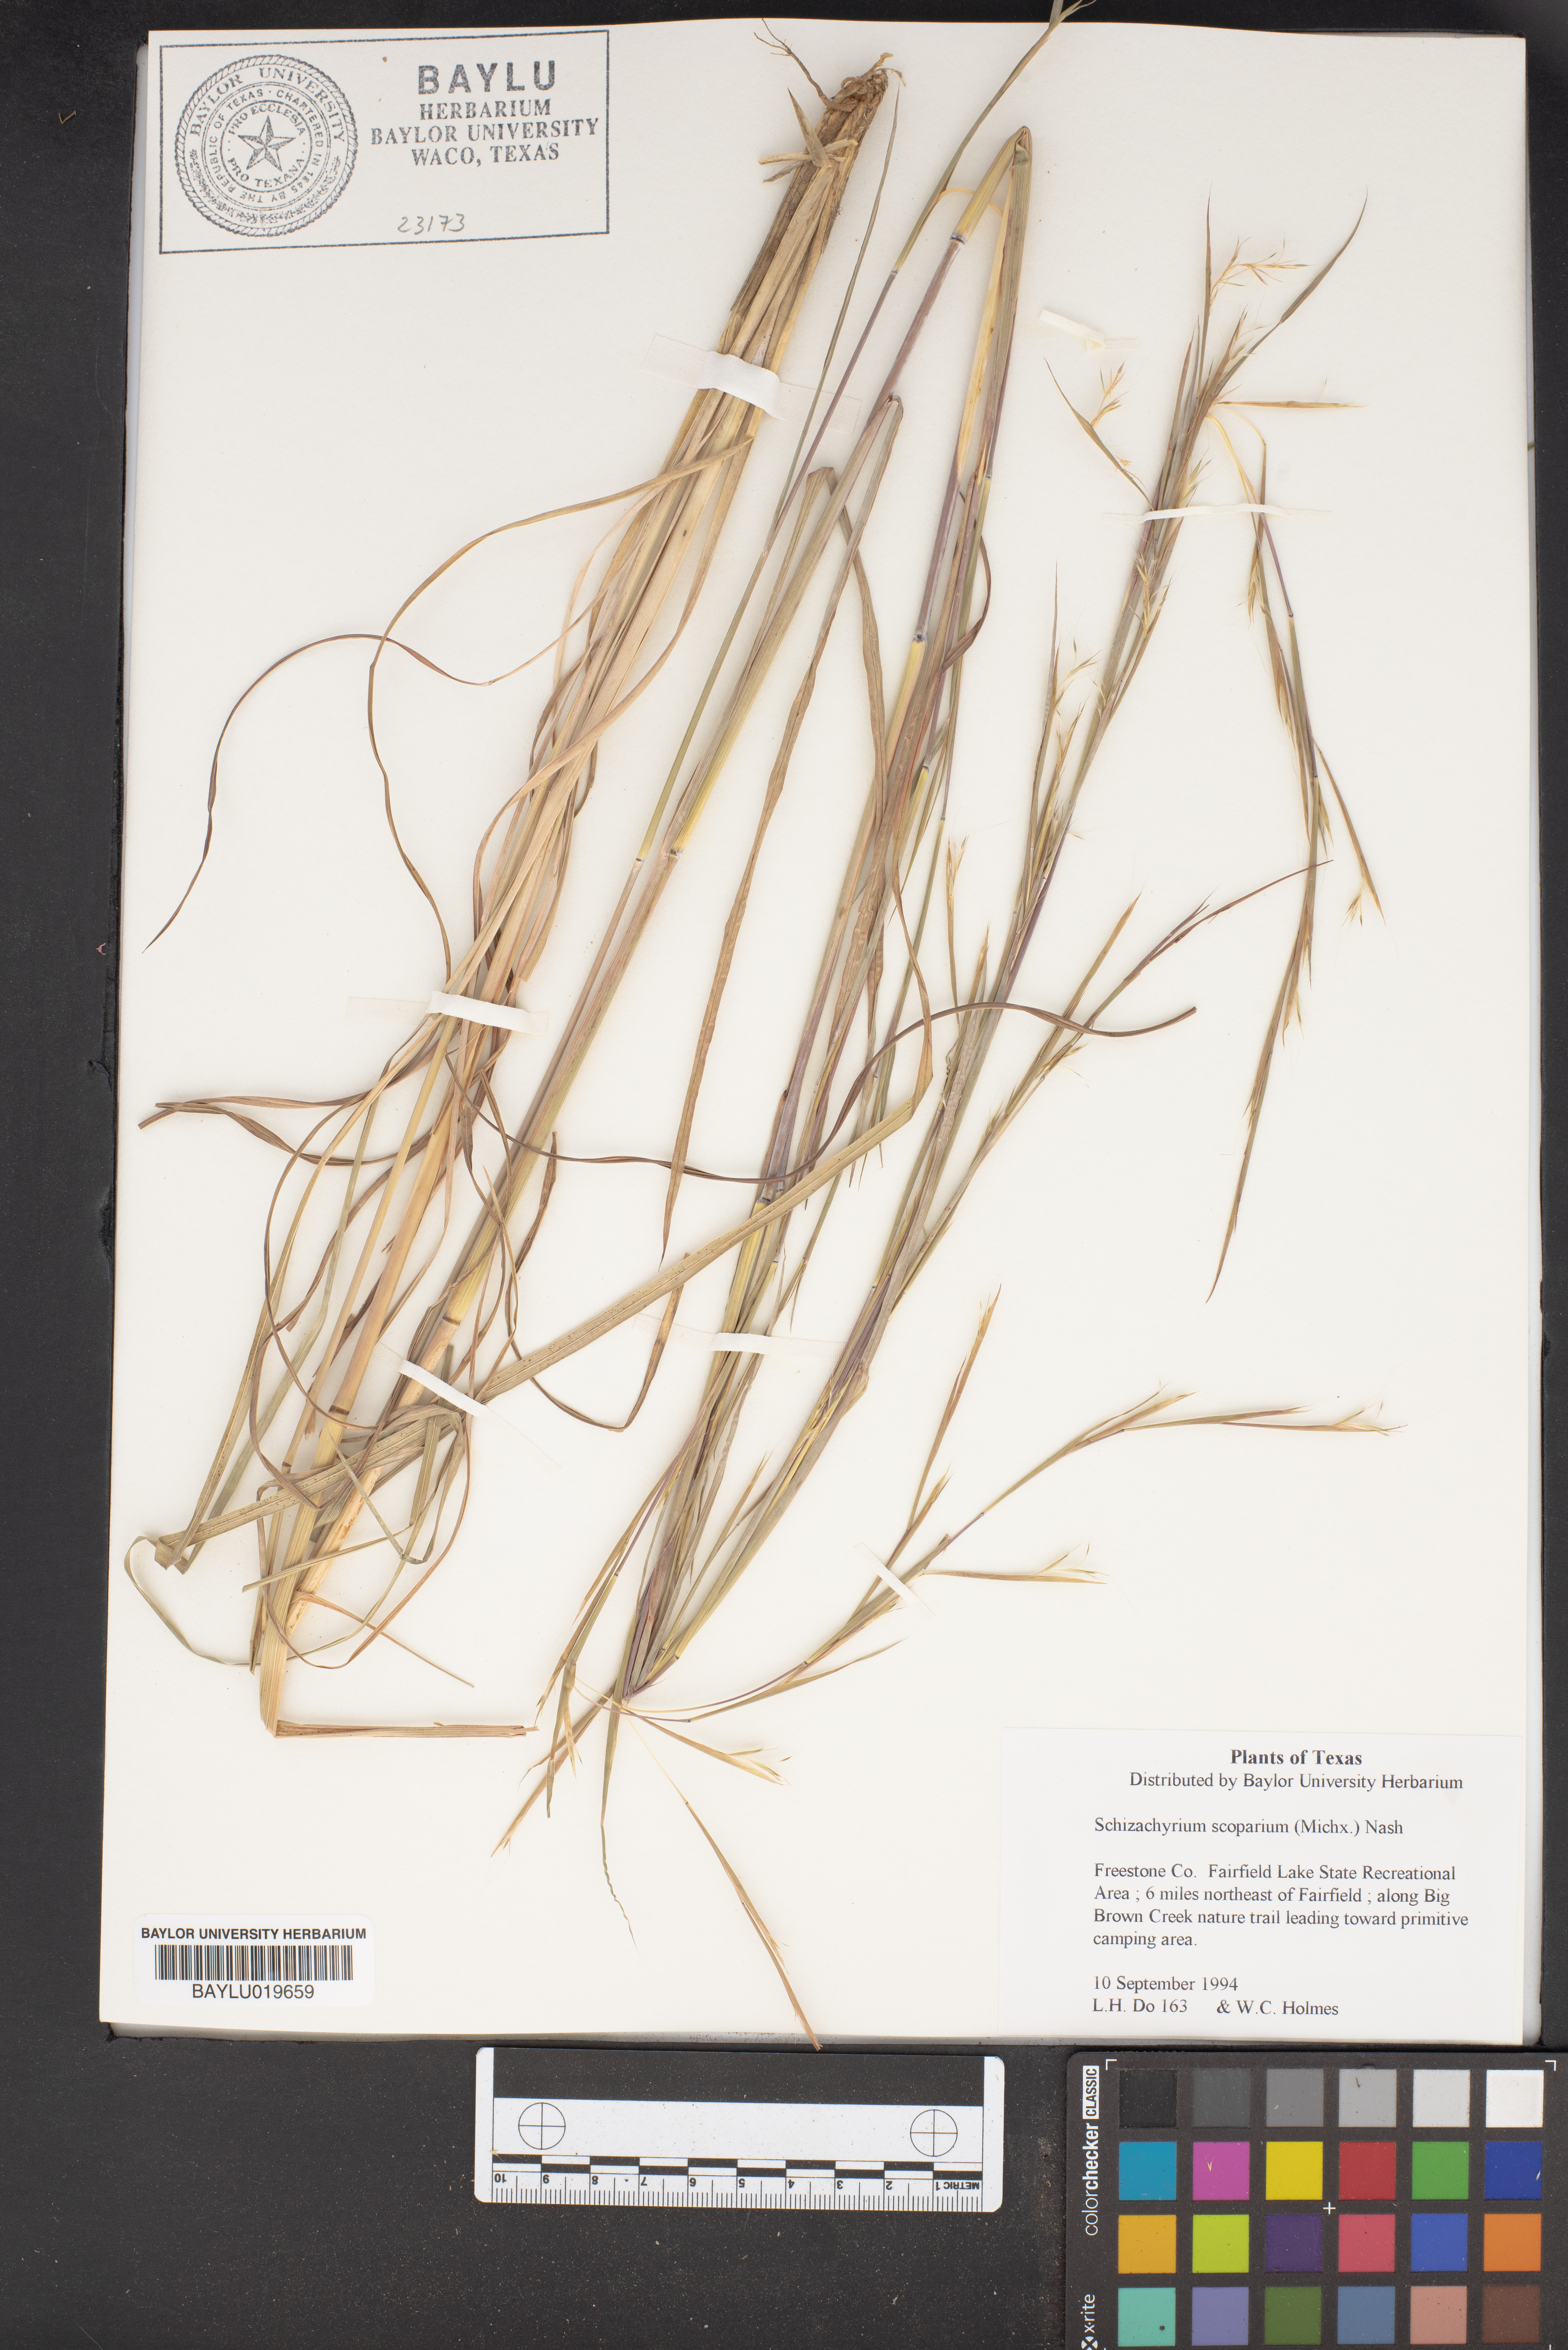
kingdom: Plantae
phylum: Tracheophyta
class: Liliopsida
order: Poales
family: Poaceae
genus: Schizachyrium
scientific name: Schizachyrium scoparium
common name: Little bluestem
